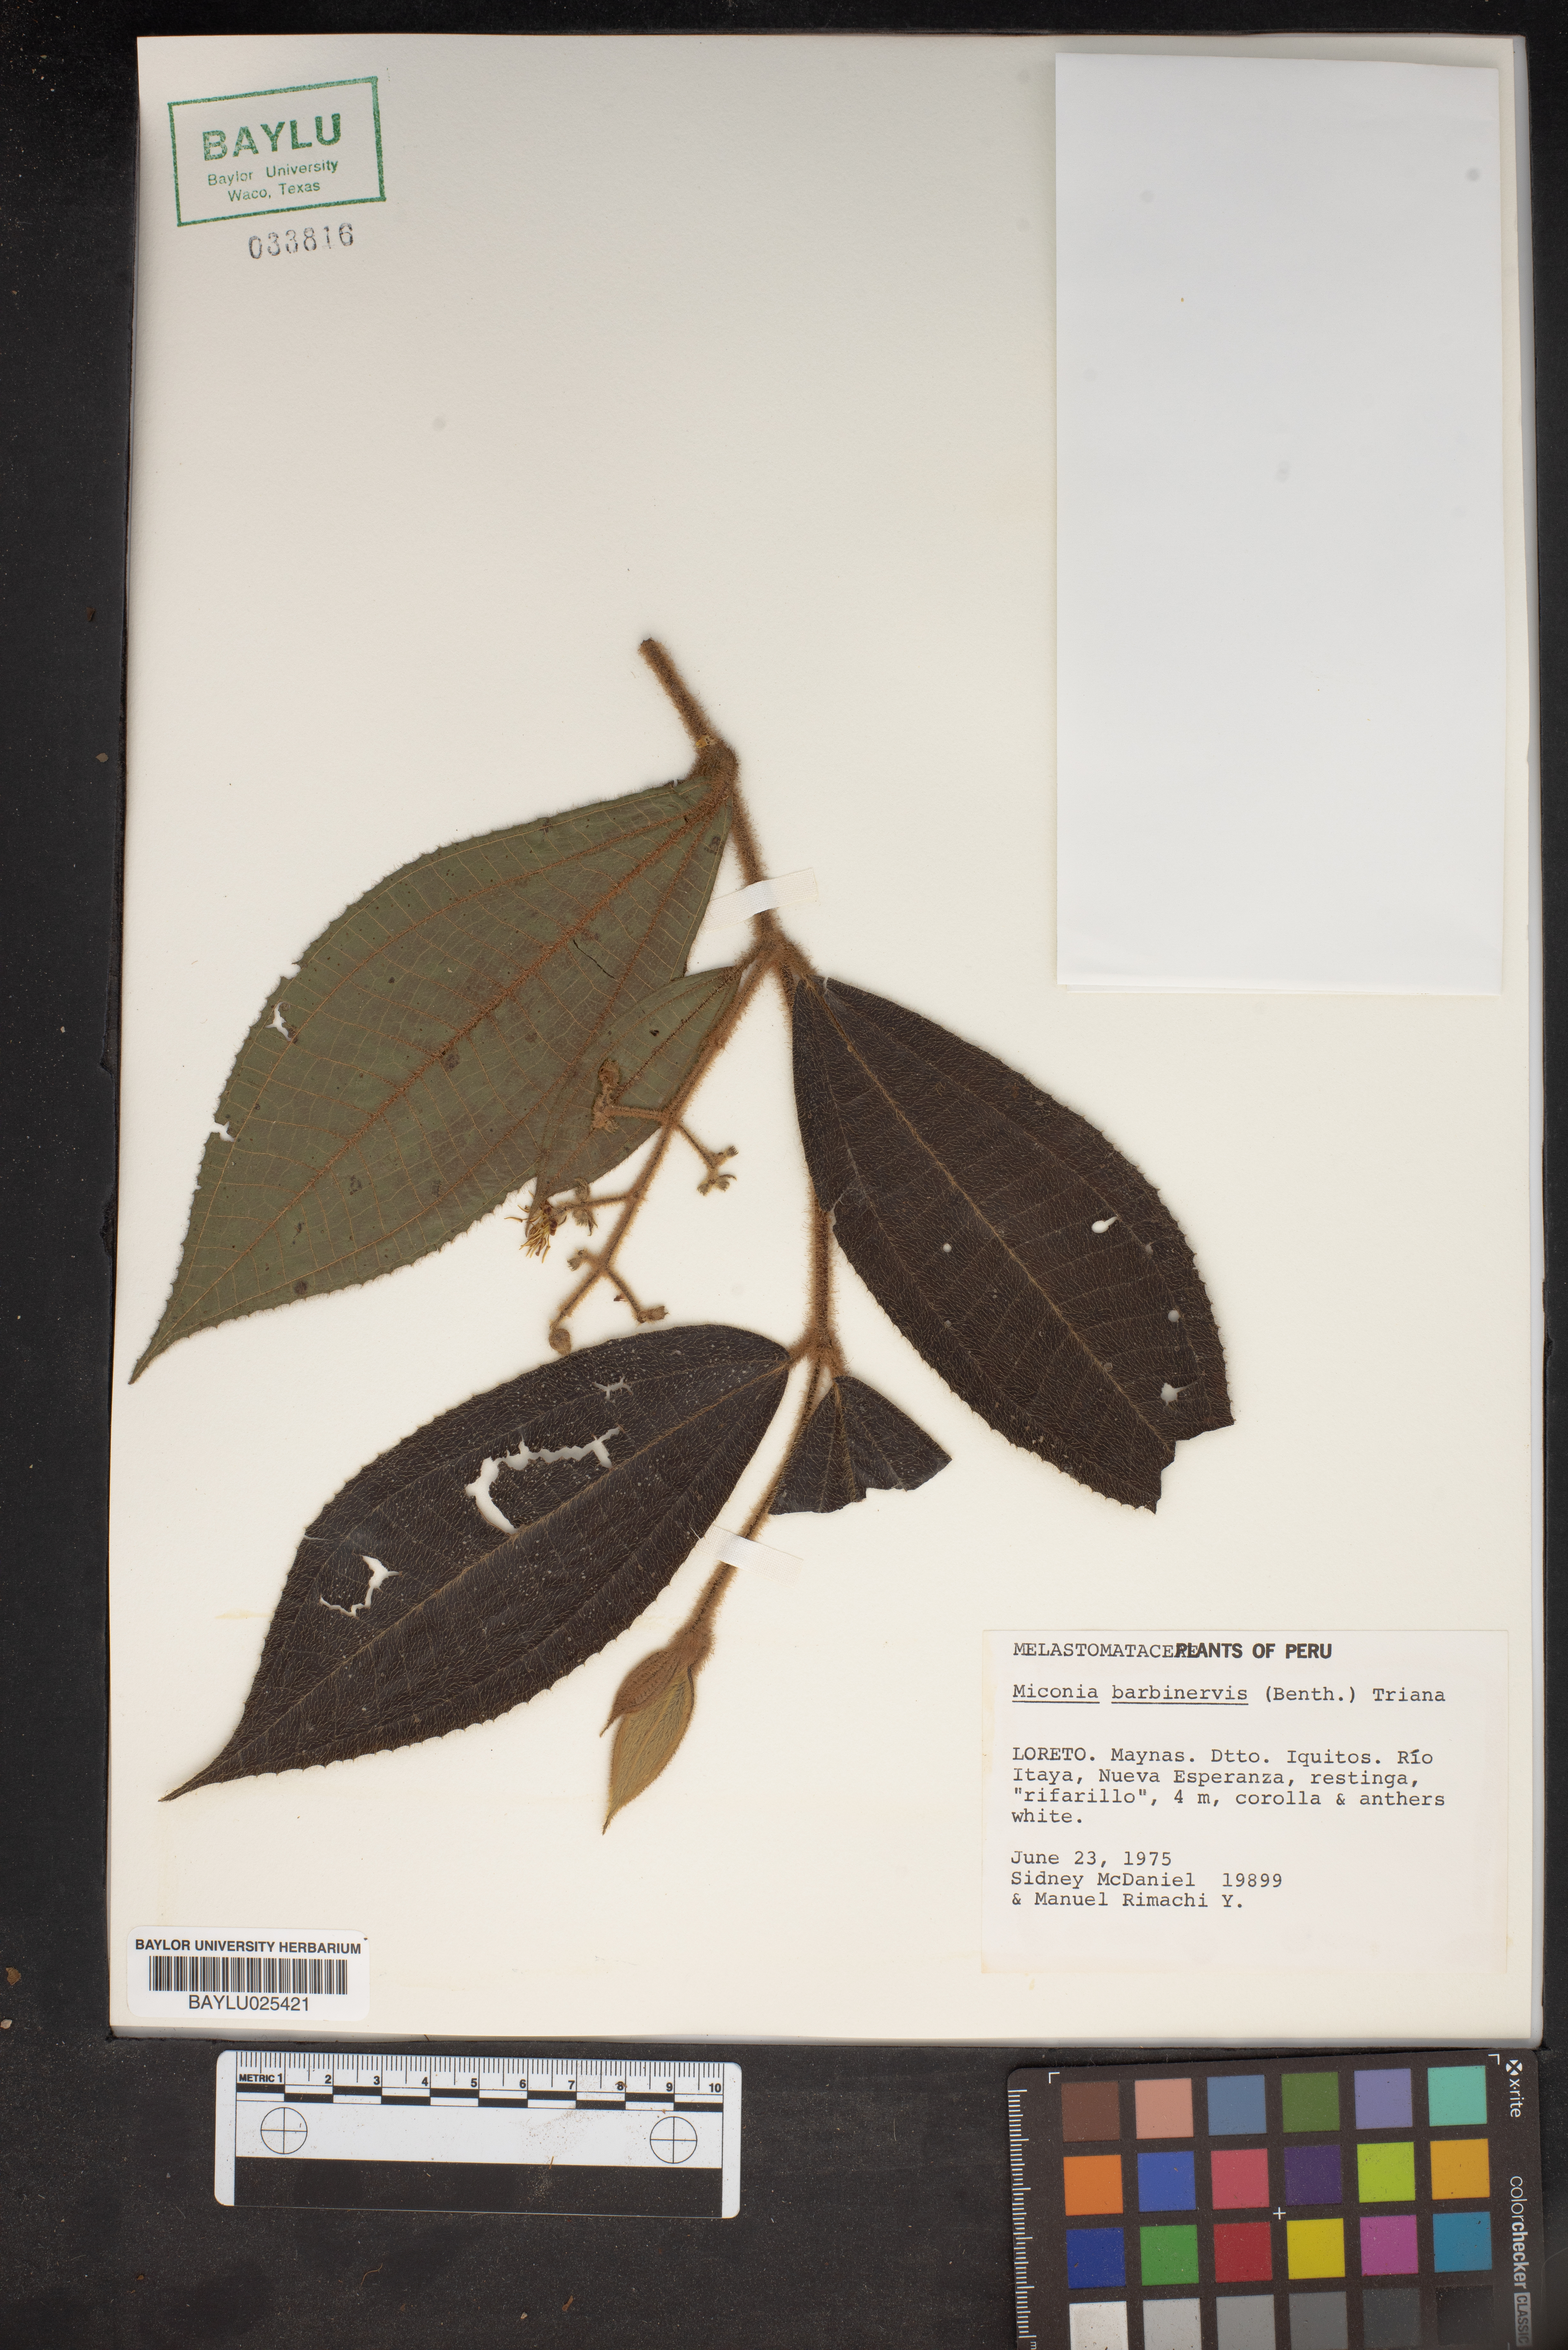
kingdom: Plantae
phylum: Tracheophyta
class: Magnoliopsida
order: Myrtales
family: Melastomataceae
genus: Miconia
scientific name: Miconia barbinervis
